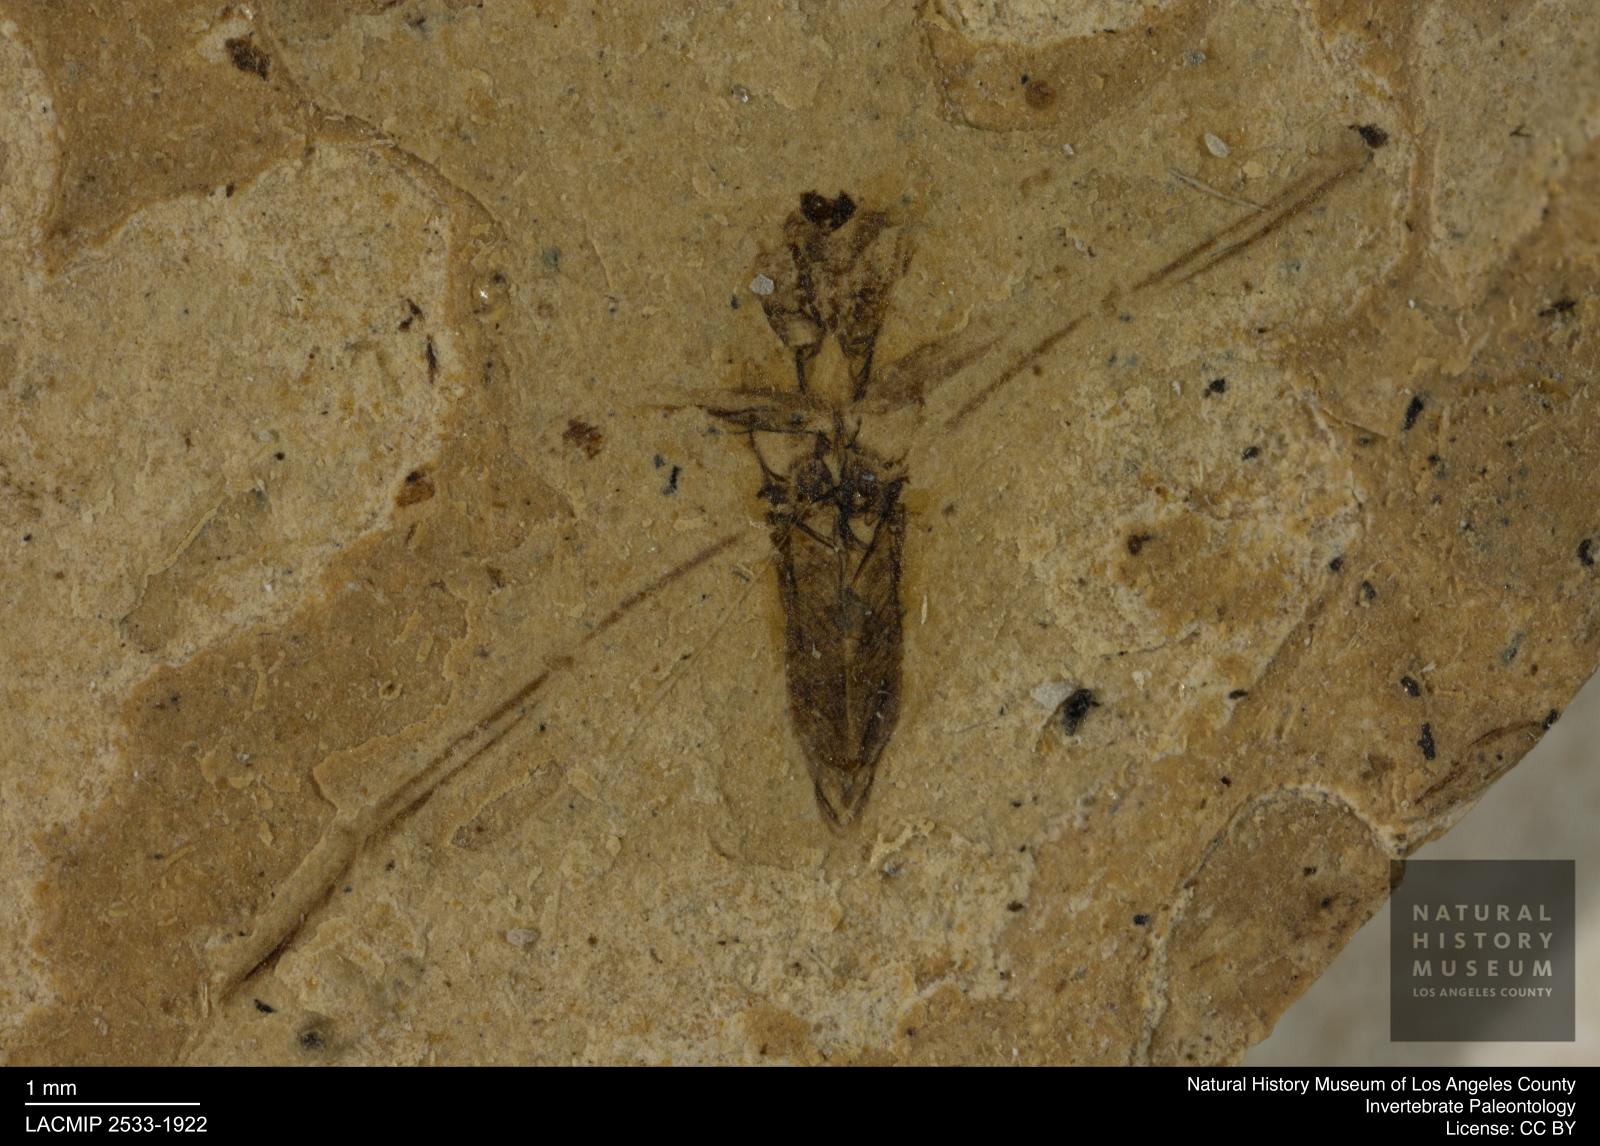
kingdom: Animalia
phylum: Arthropoda
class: Insecta
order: Hemiptera
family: Notonectidae
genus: Notonecta
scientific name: Notonecta
